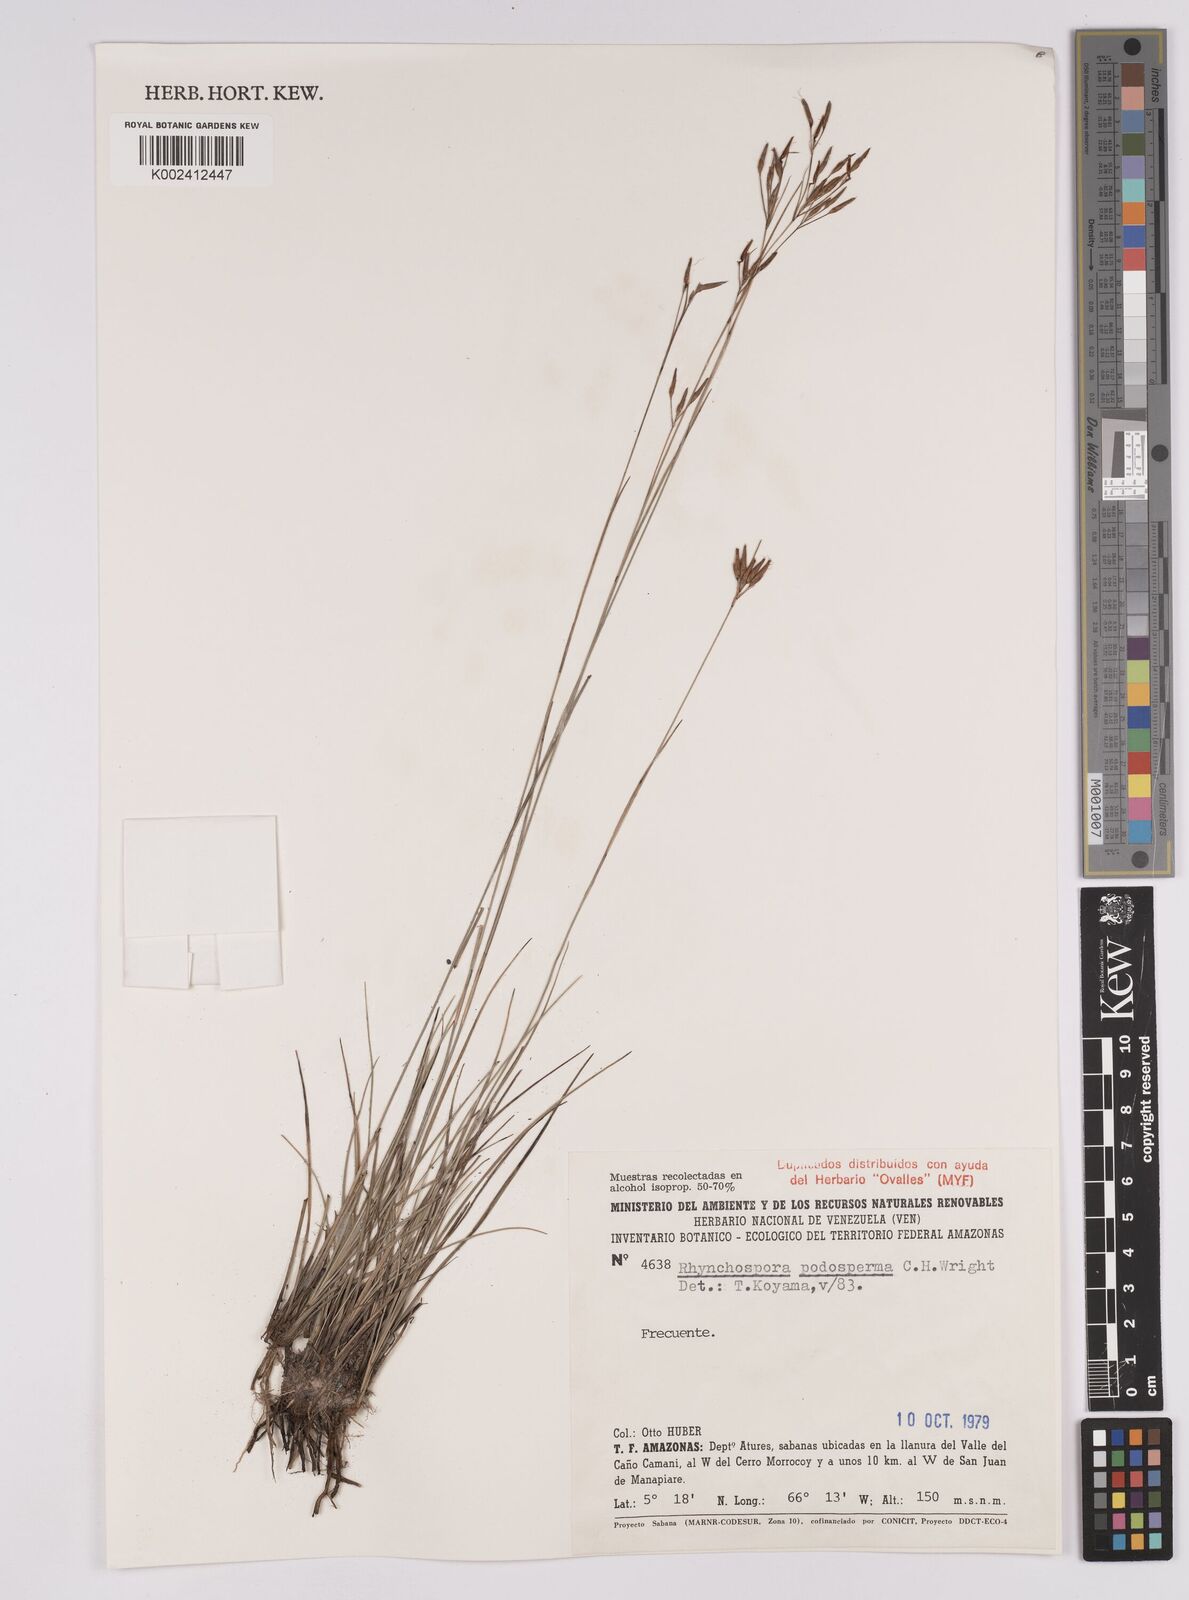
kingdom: Plantae
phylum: Tracheophyta
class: Liliopsida
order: Poales
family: Cyperaceae
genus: Rhynchospora
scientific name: Rhynchospora filiformis
